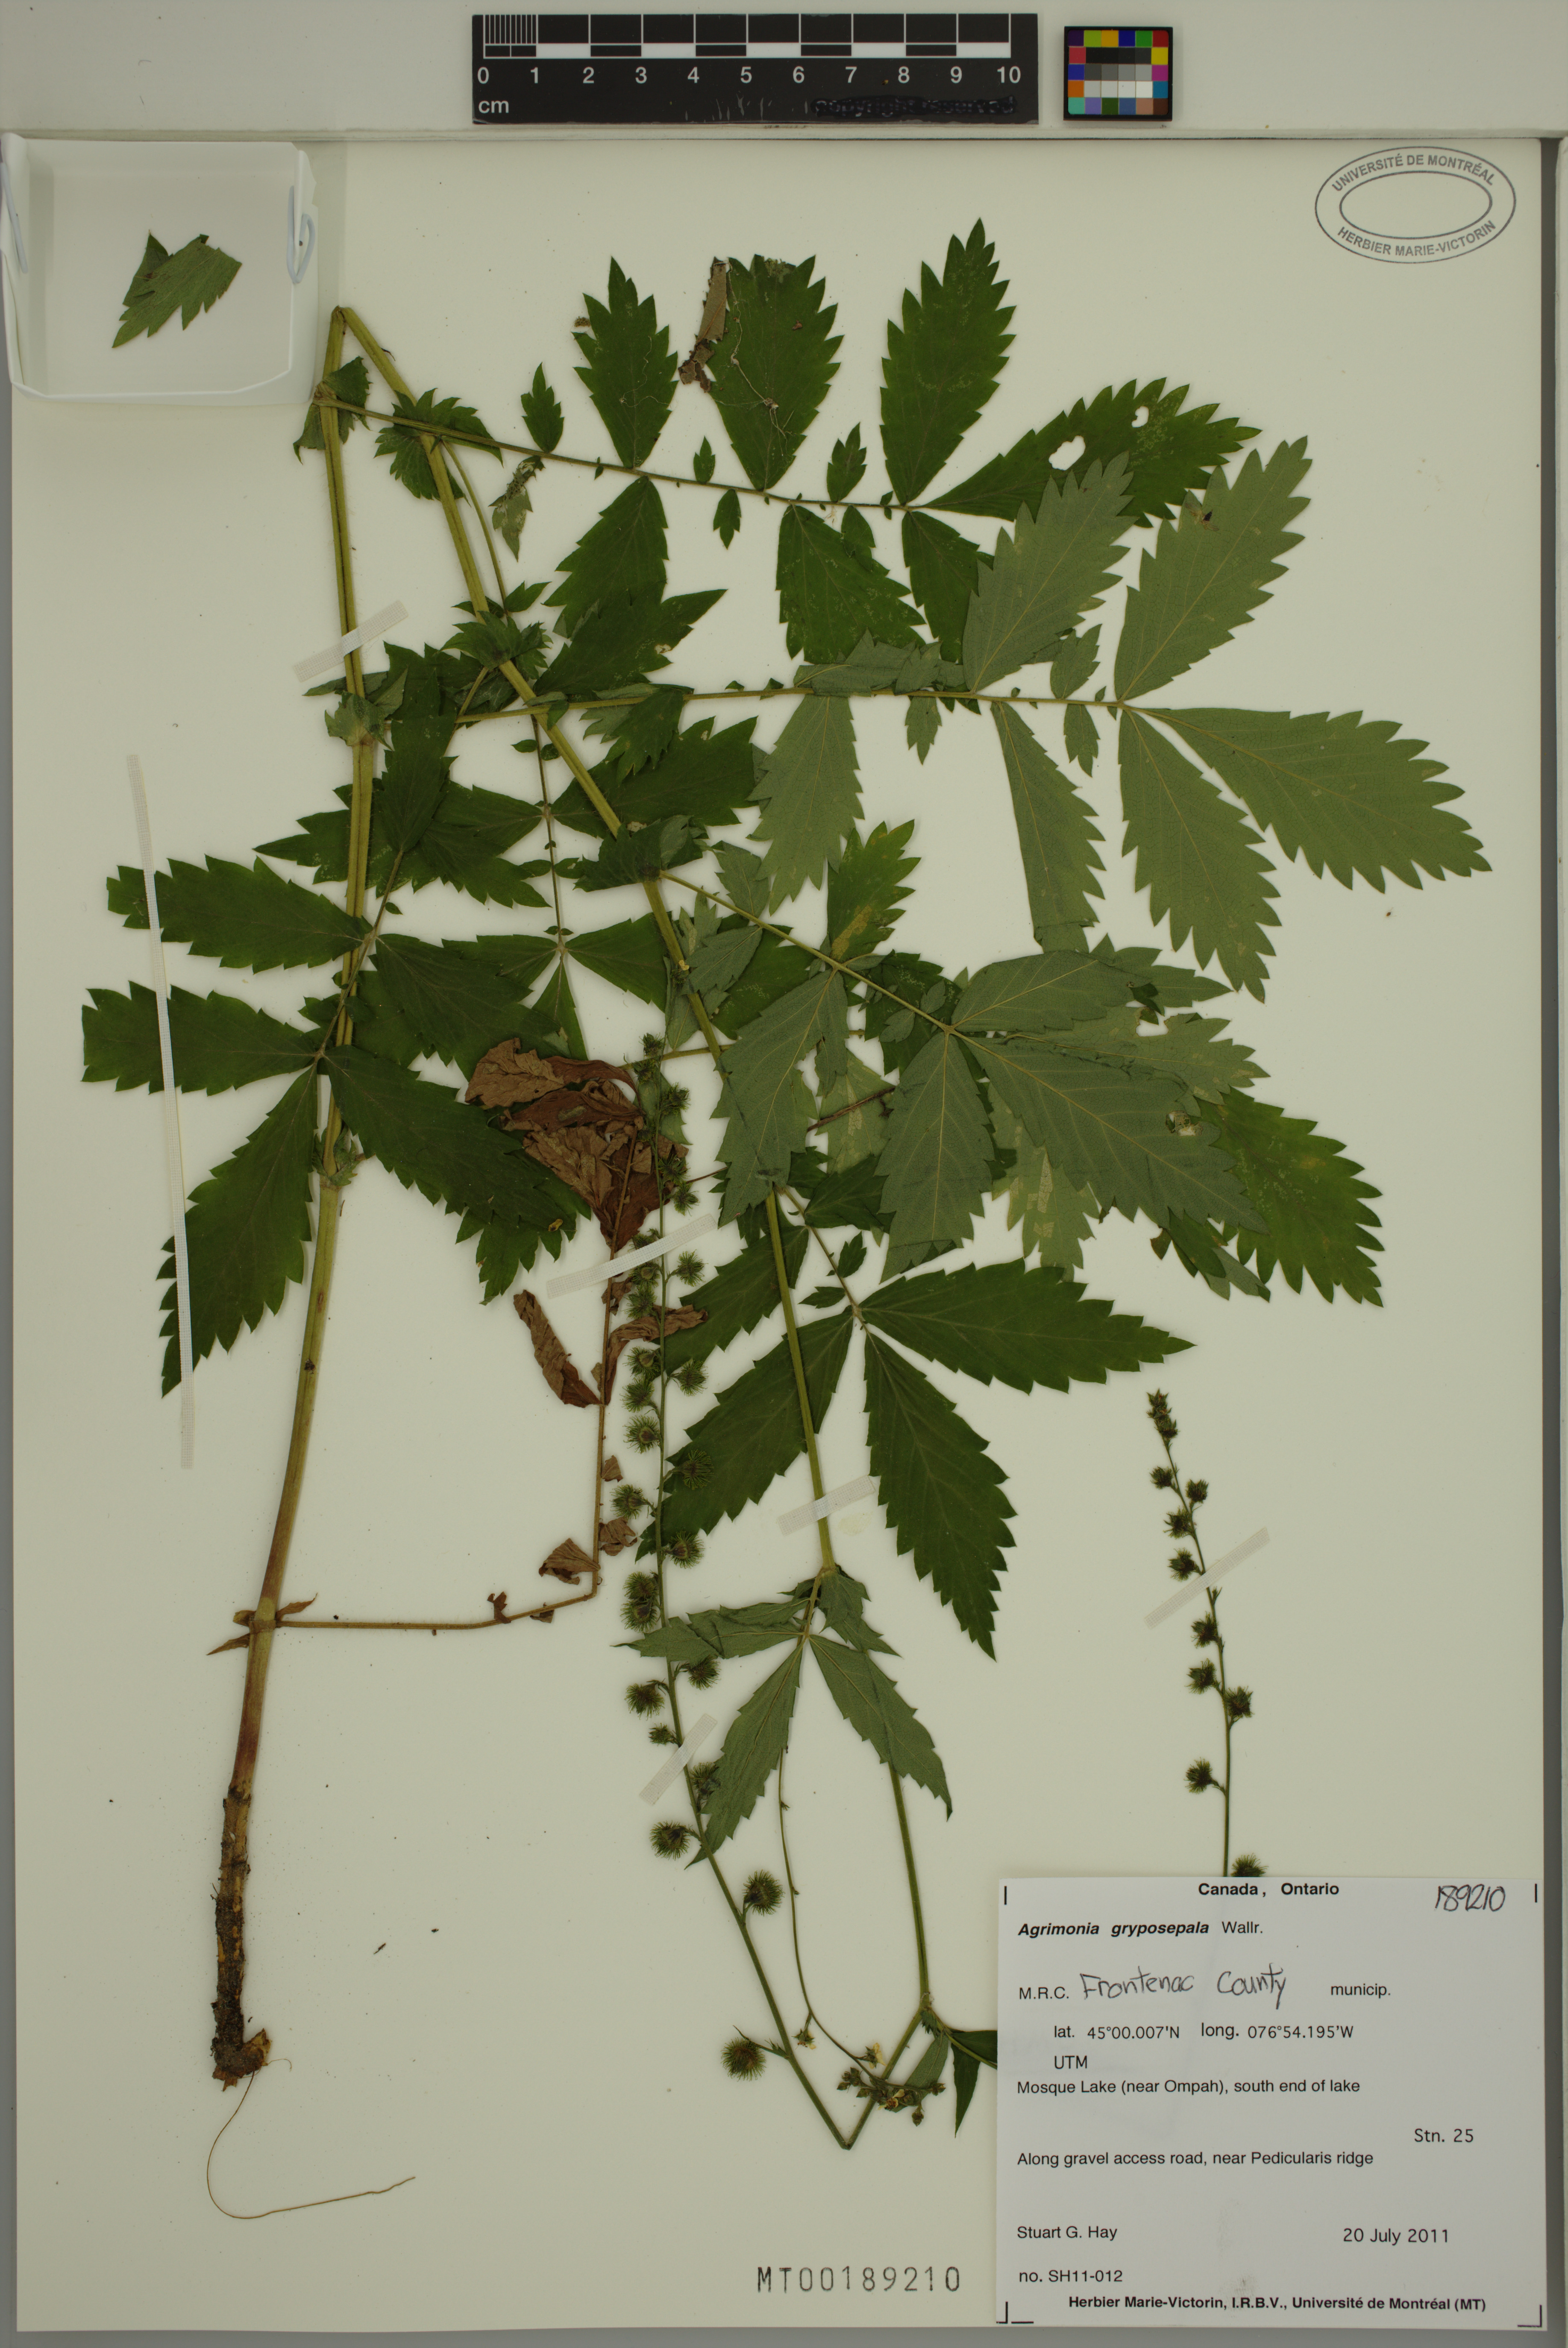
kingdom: Plantae
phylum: Tracheophyta
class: Magnoliopsida
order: Rosales
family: Rosaceae
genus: Agrimonia
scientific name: Agrimonia gryposepala
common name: Common agrimony
